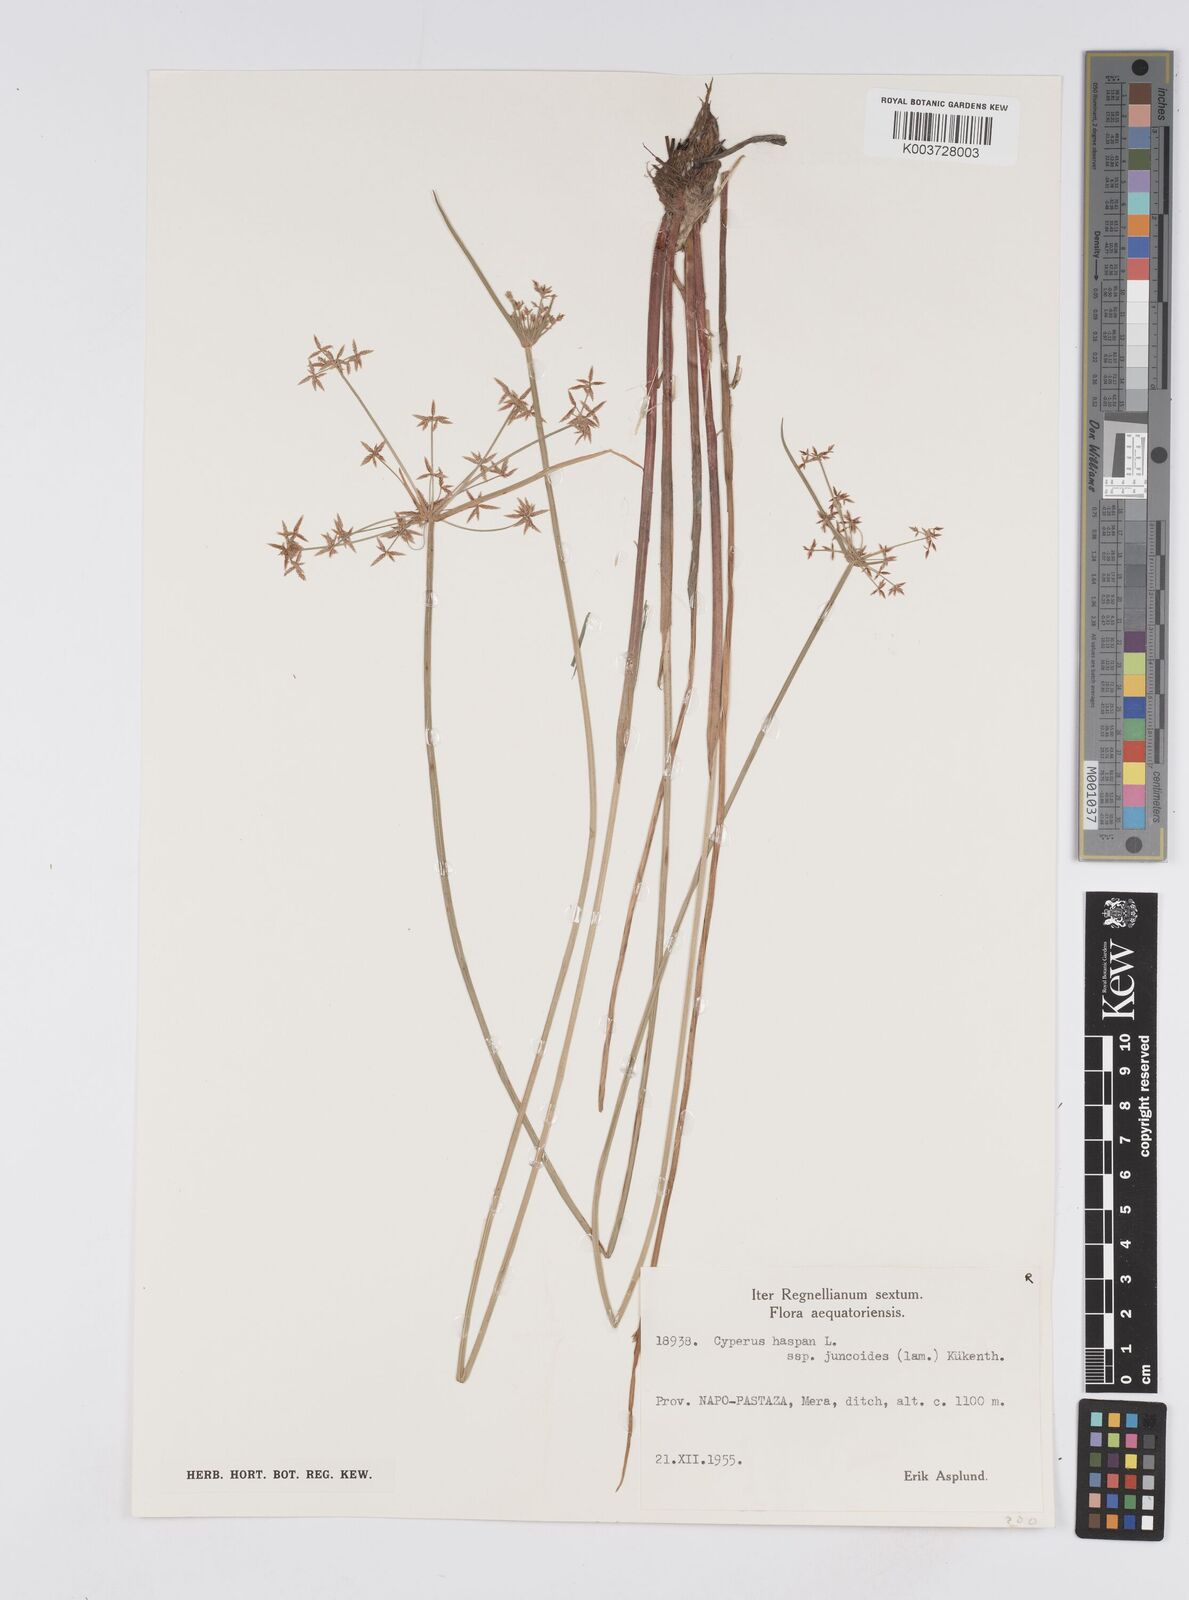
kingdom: Plantae
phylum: Tracheophyta
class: Liliopsida
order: Poales
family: Cyperaceae
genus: Cyperus
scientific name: Cyperus haspan
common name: Haspan flatsedge
